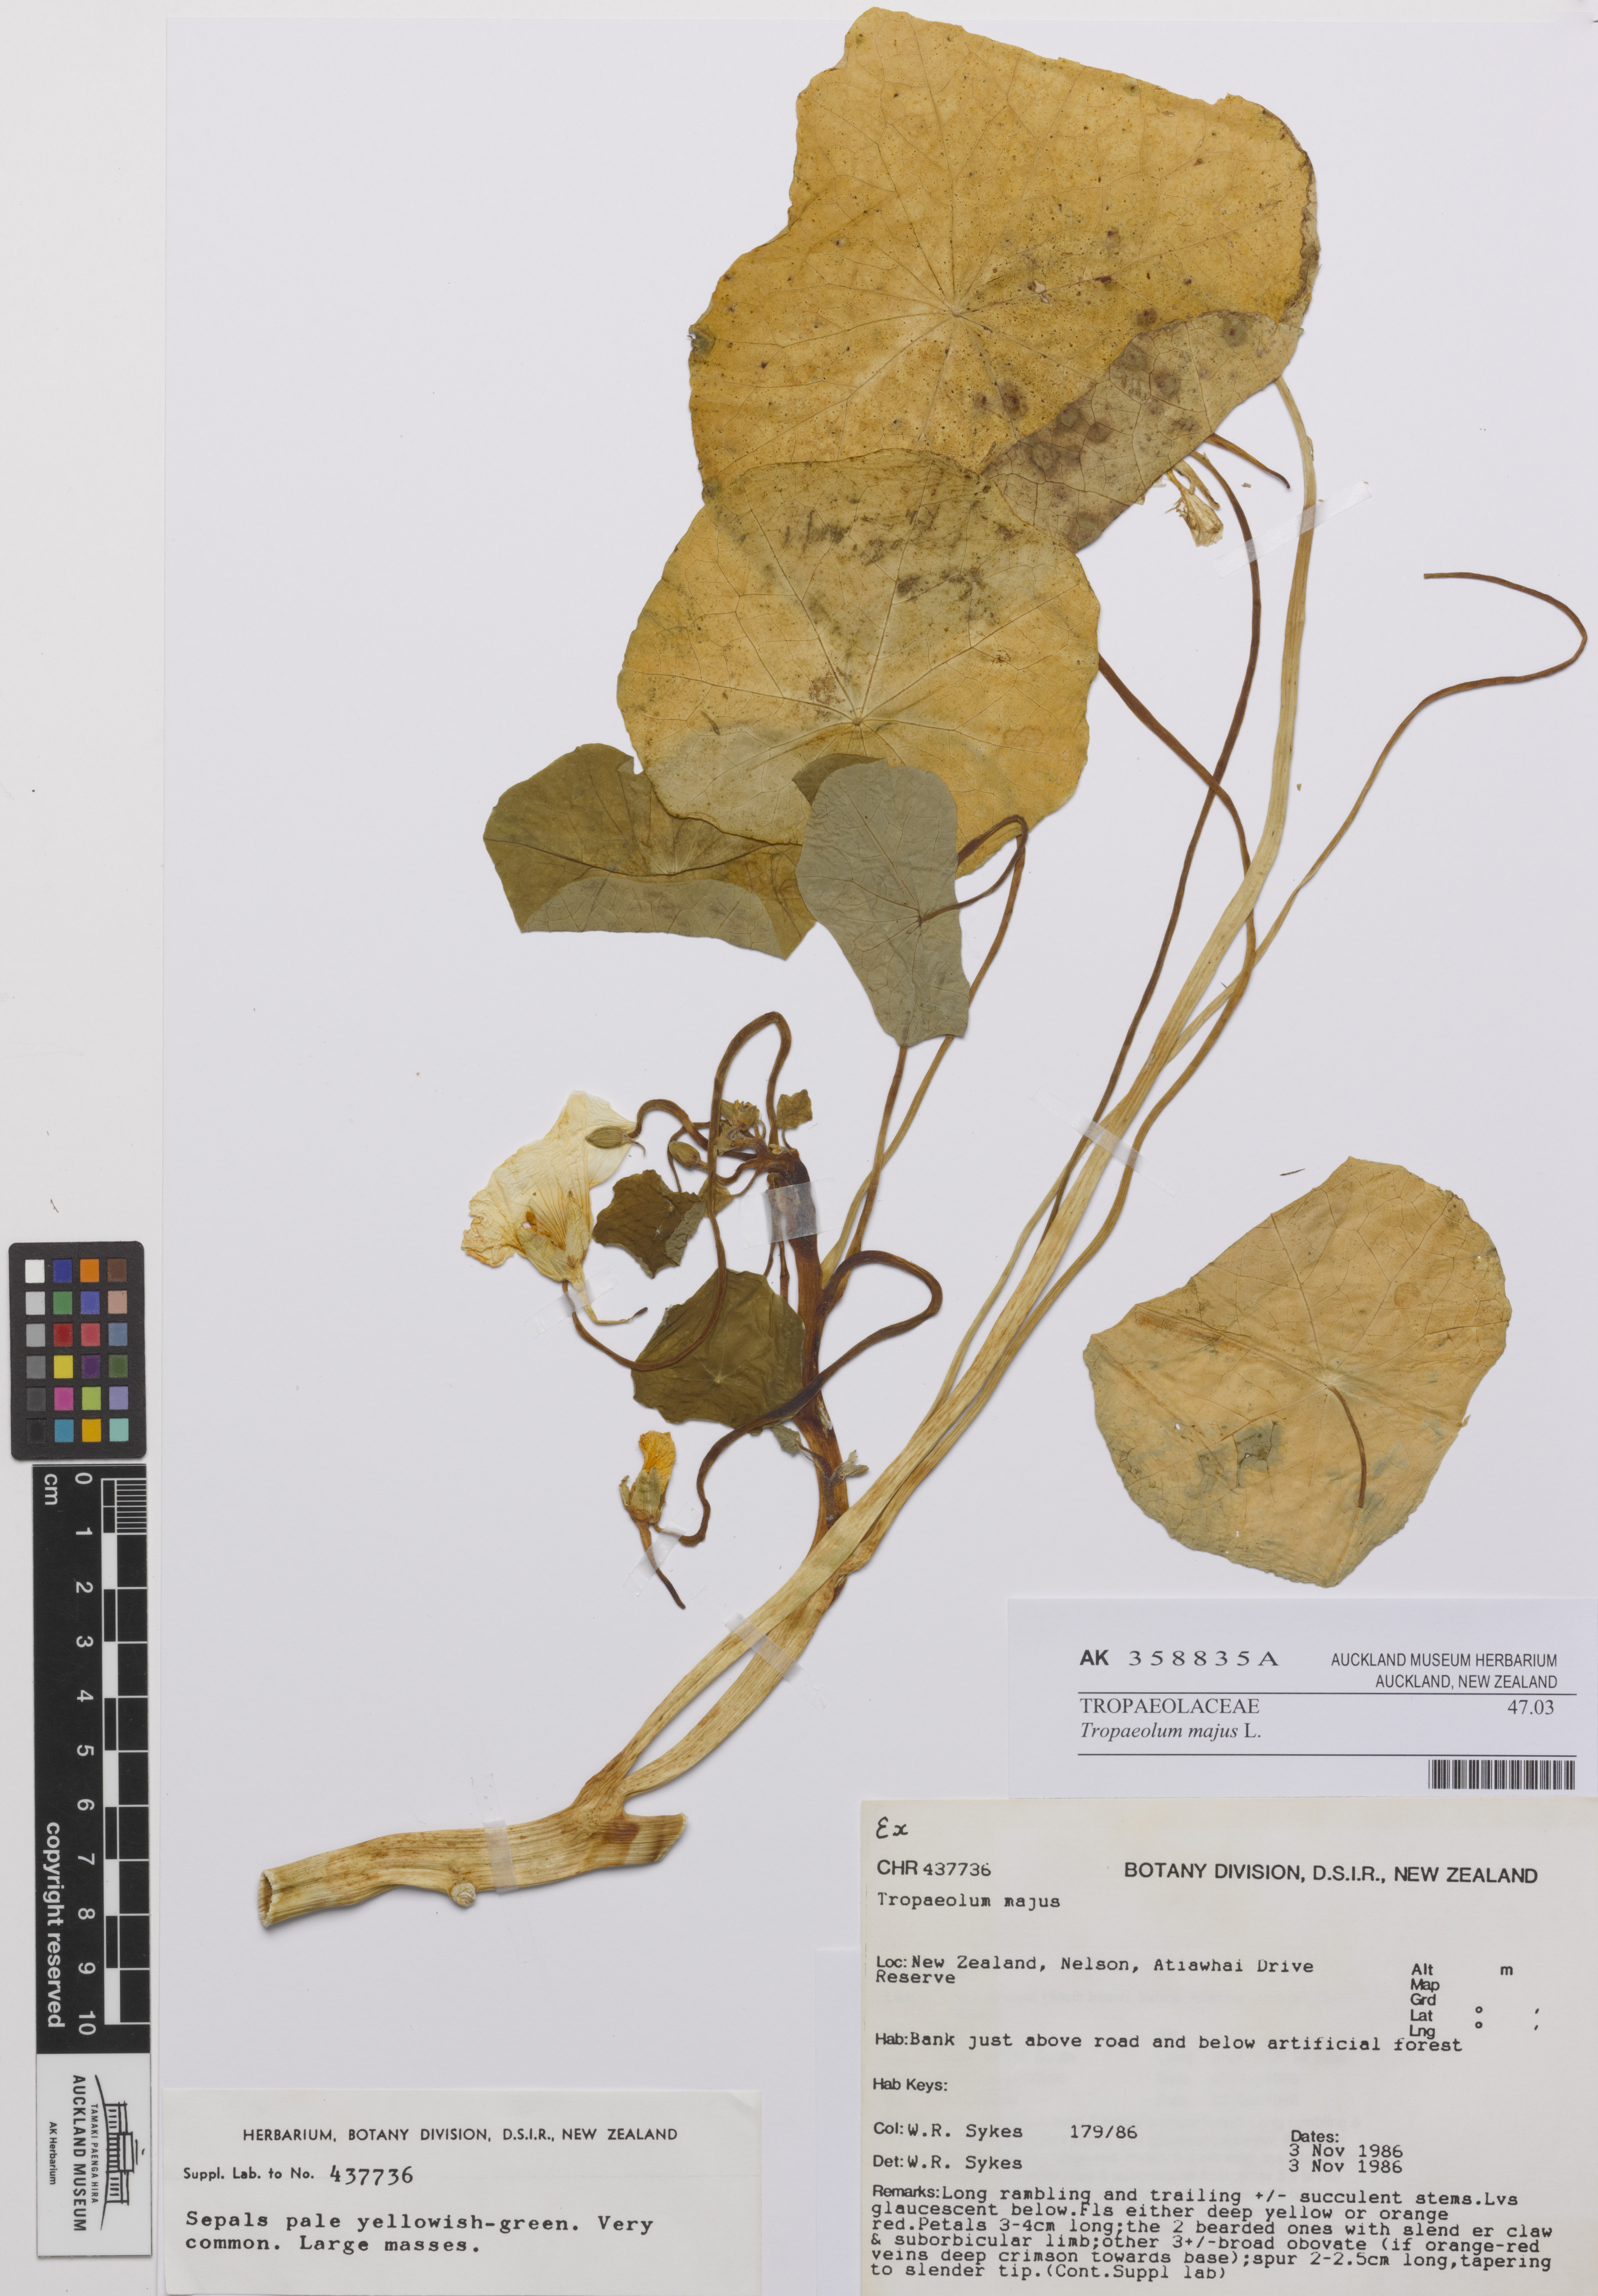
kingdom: Plantae
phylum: Tracheophyta
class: Magnoliopsida
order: Brassicales
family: Tropaeolaceae
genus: Tropaeolum
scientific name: Tropaeolum majus
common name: Nasturtium
